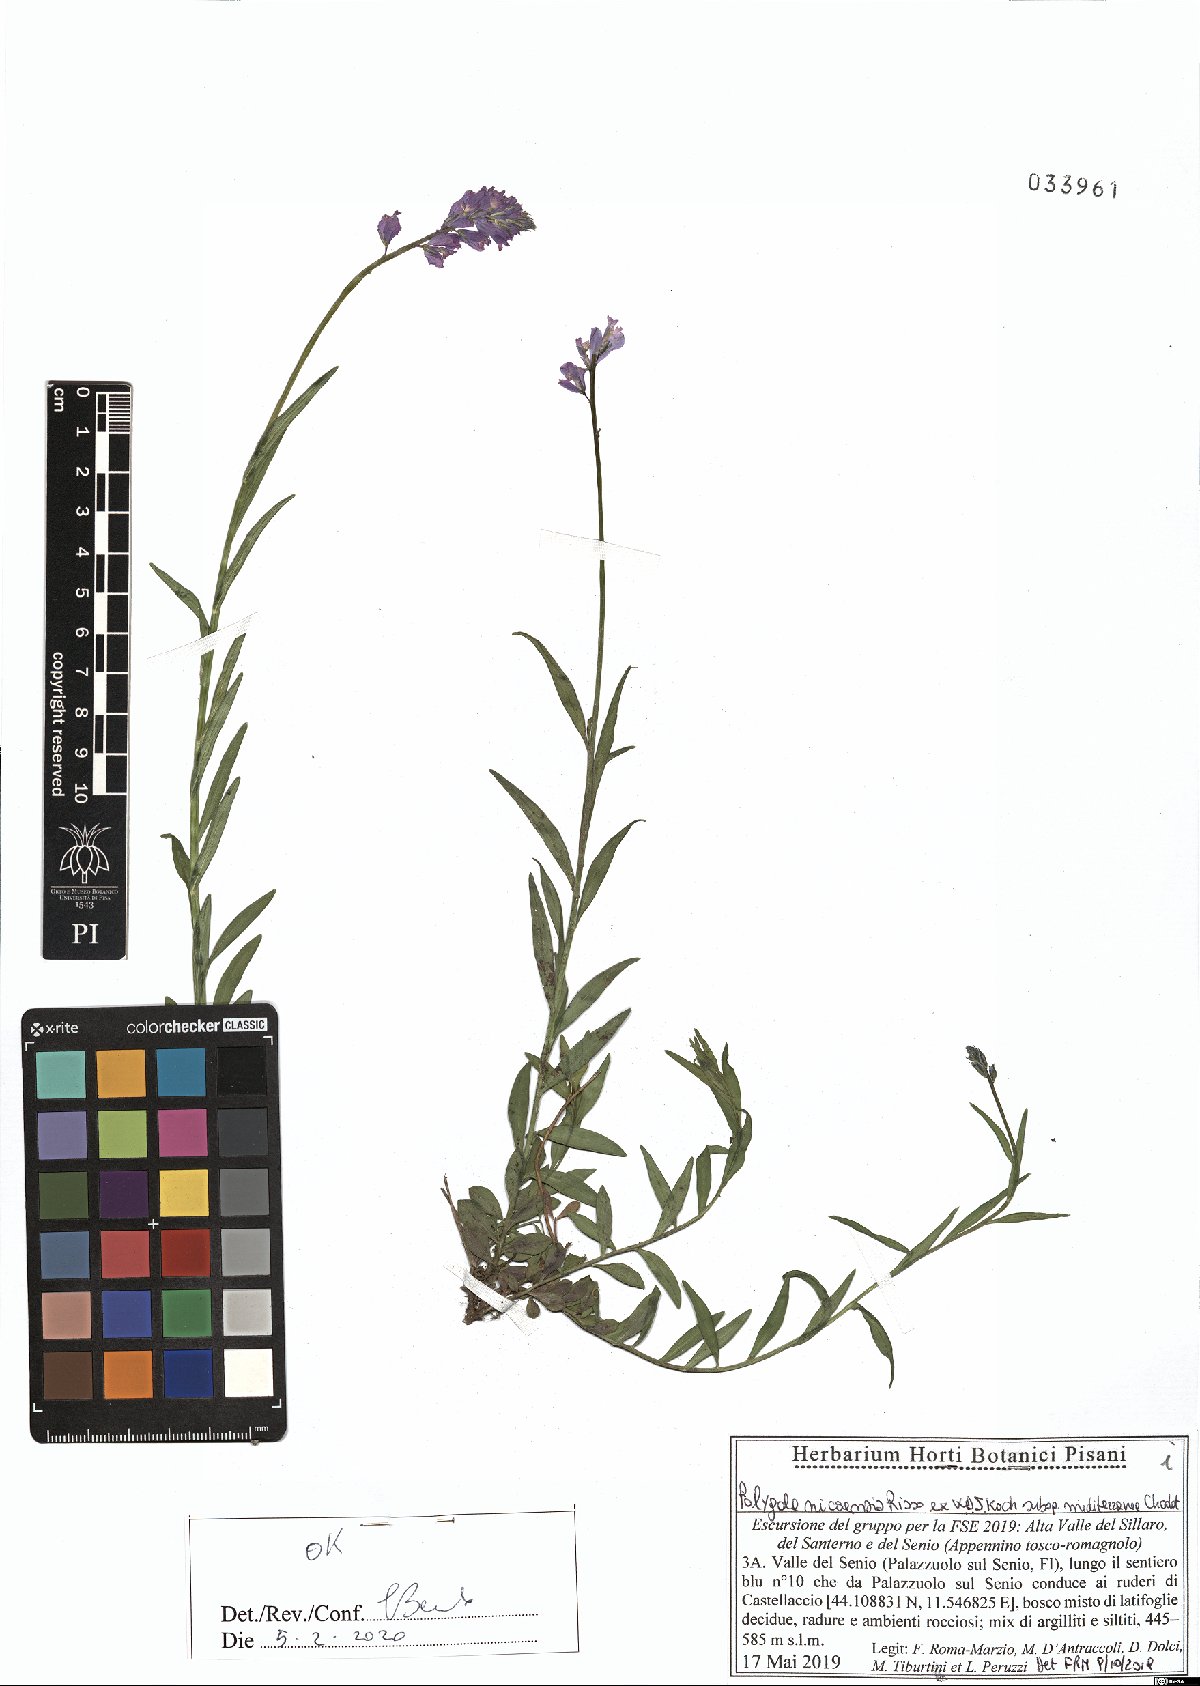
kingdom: Plantae
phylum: Tracheophyta
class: Magnoliopsida
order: Fabales
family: Polygalaceae
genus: Polygala
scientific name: Polygala nicaeensis
